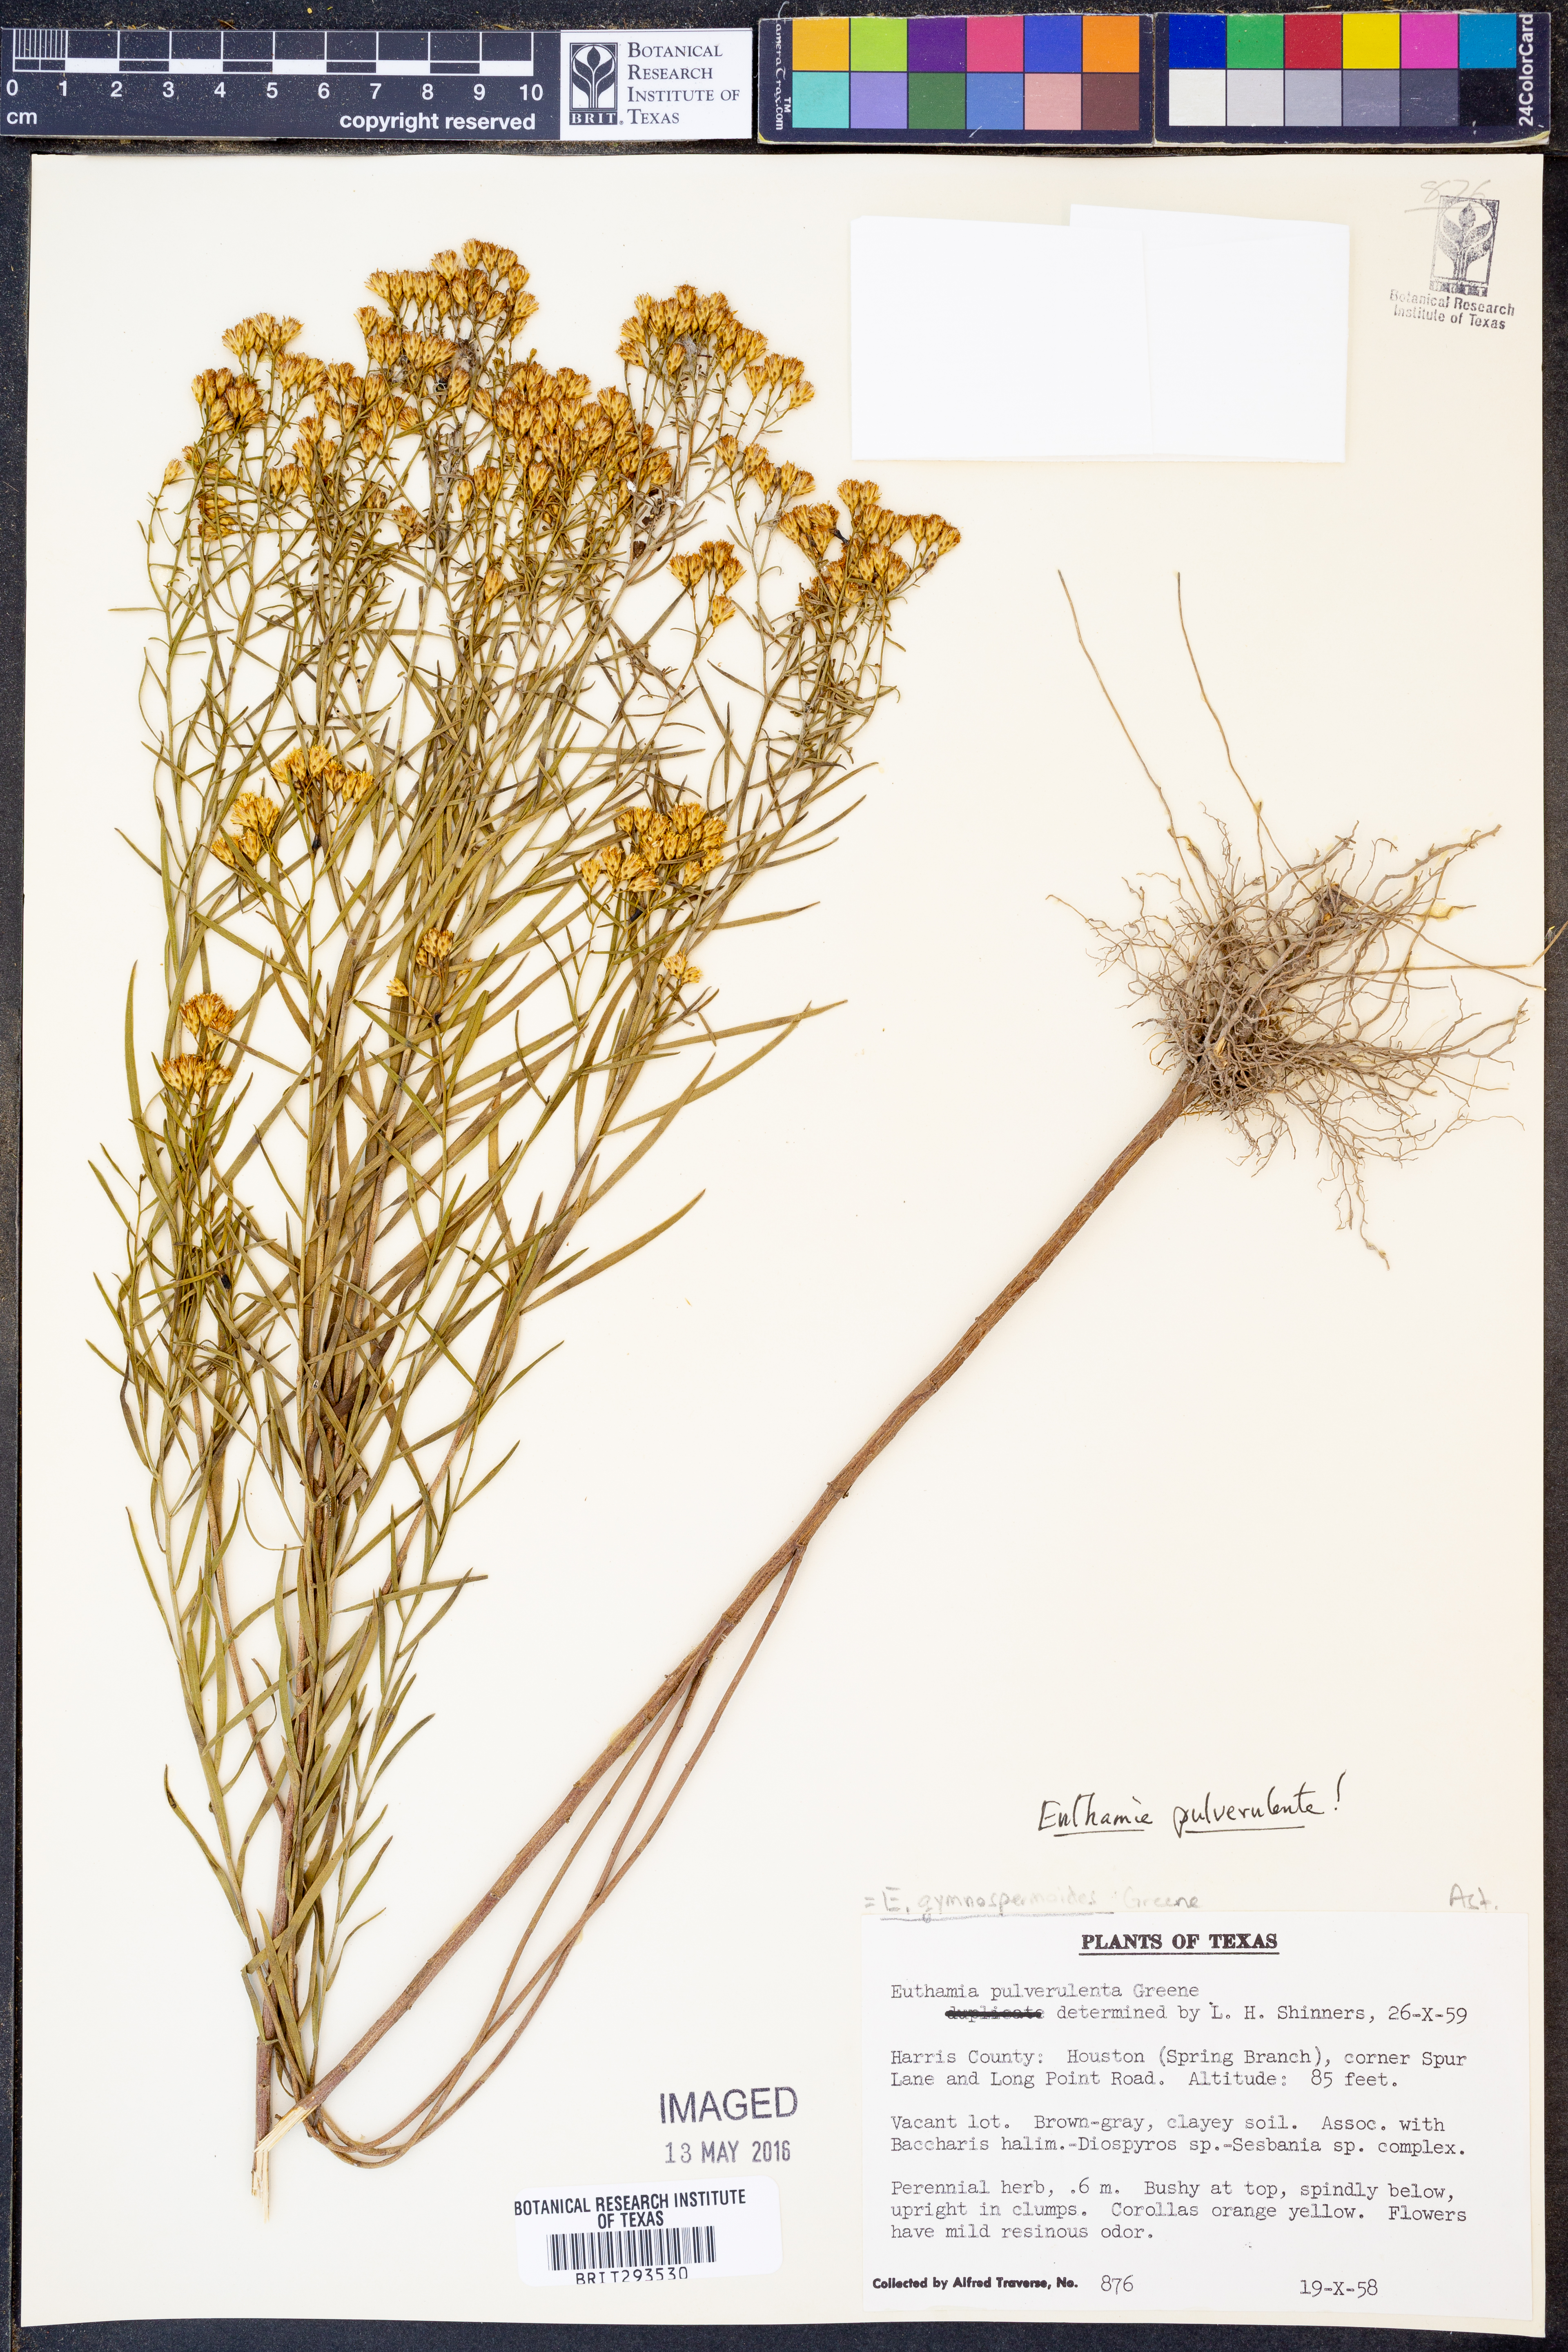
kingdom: Plantae
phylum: Tracheophyta
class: Magnoliopsida
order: Asterales
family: Asteraceae
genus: Euthamia
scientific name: Euthamia pulverulenta
